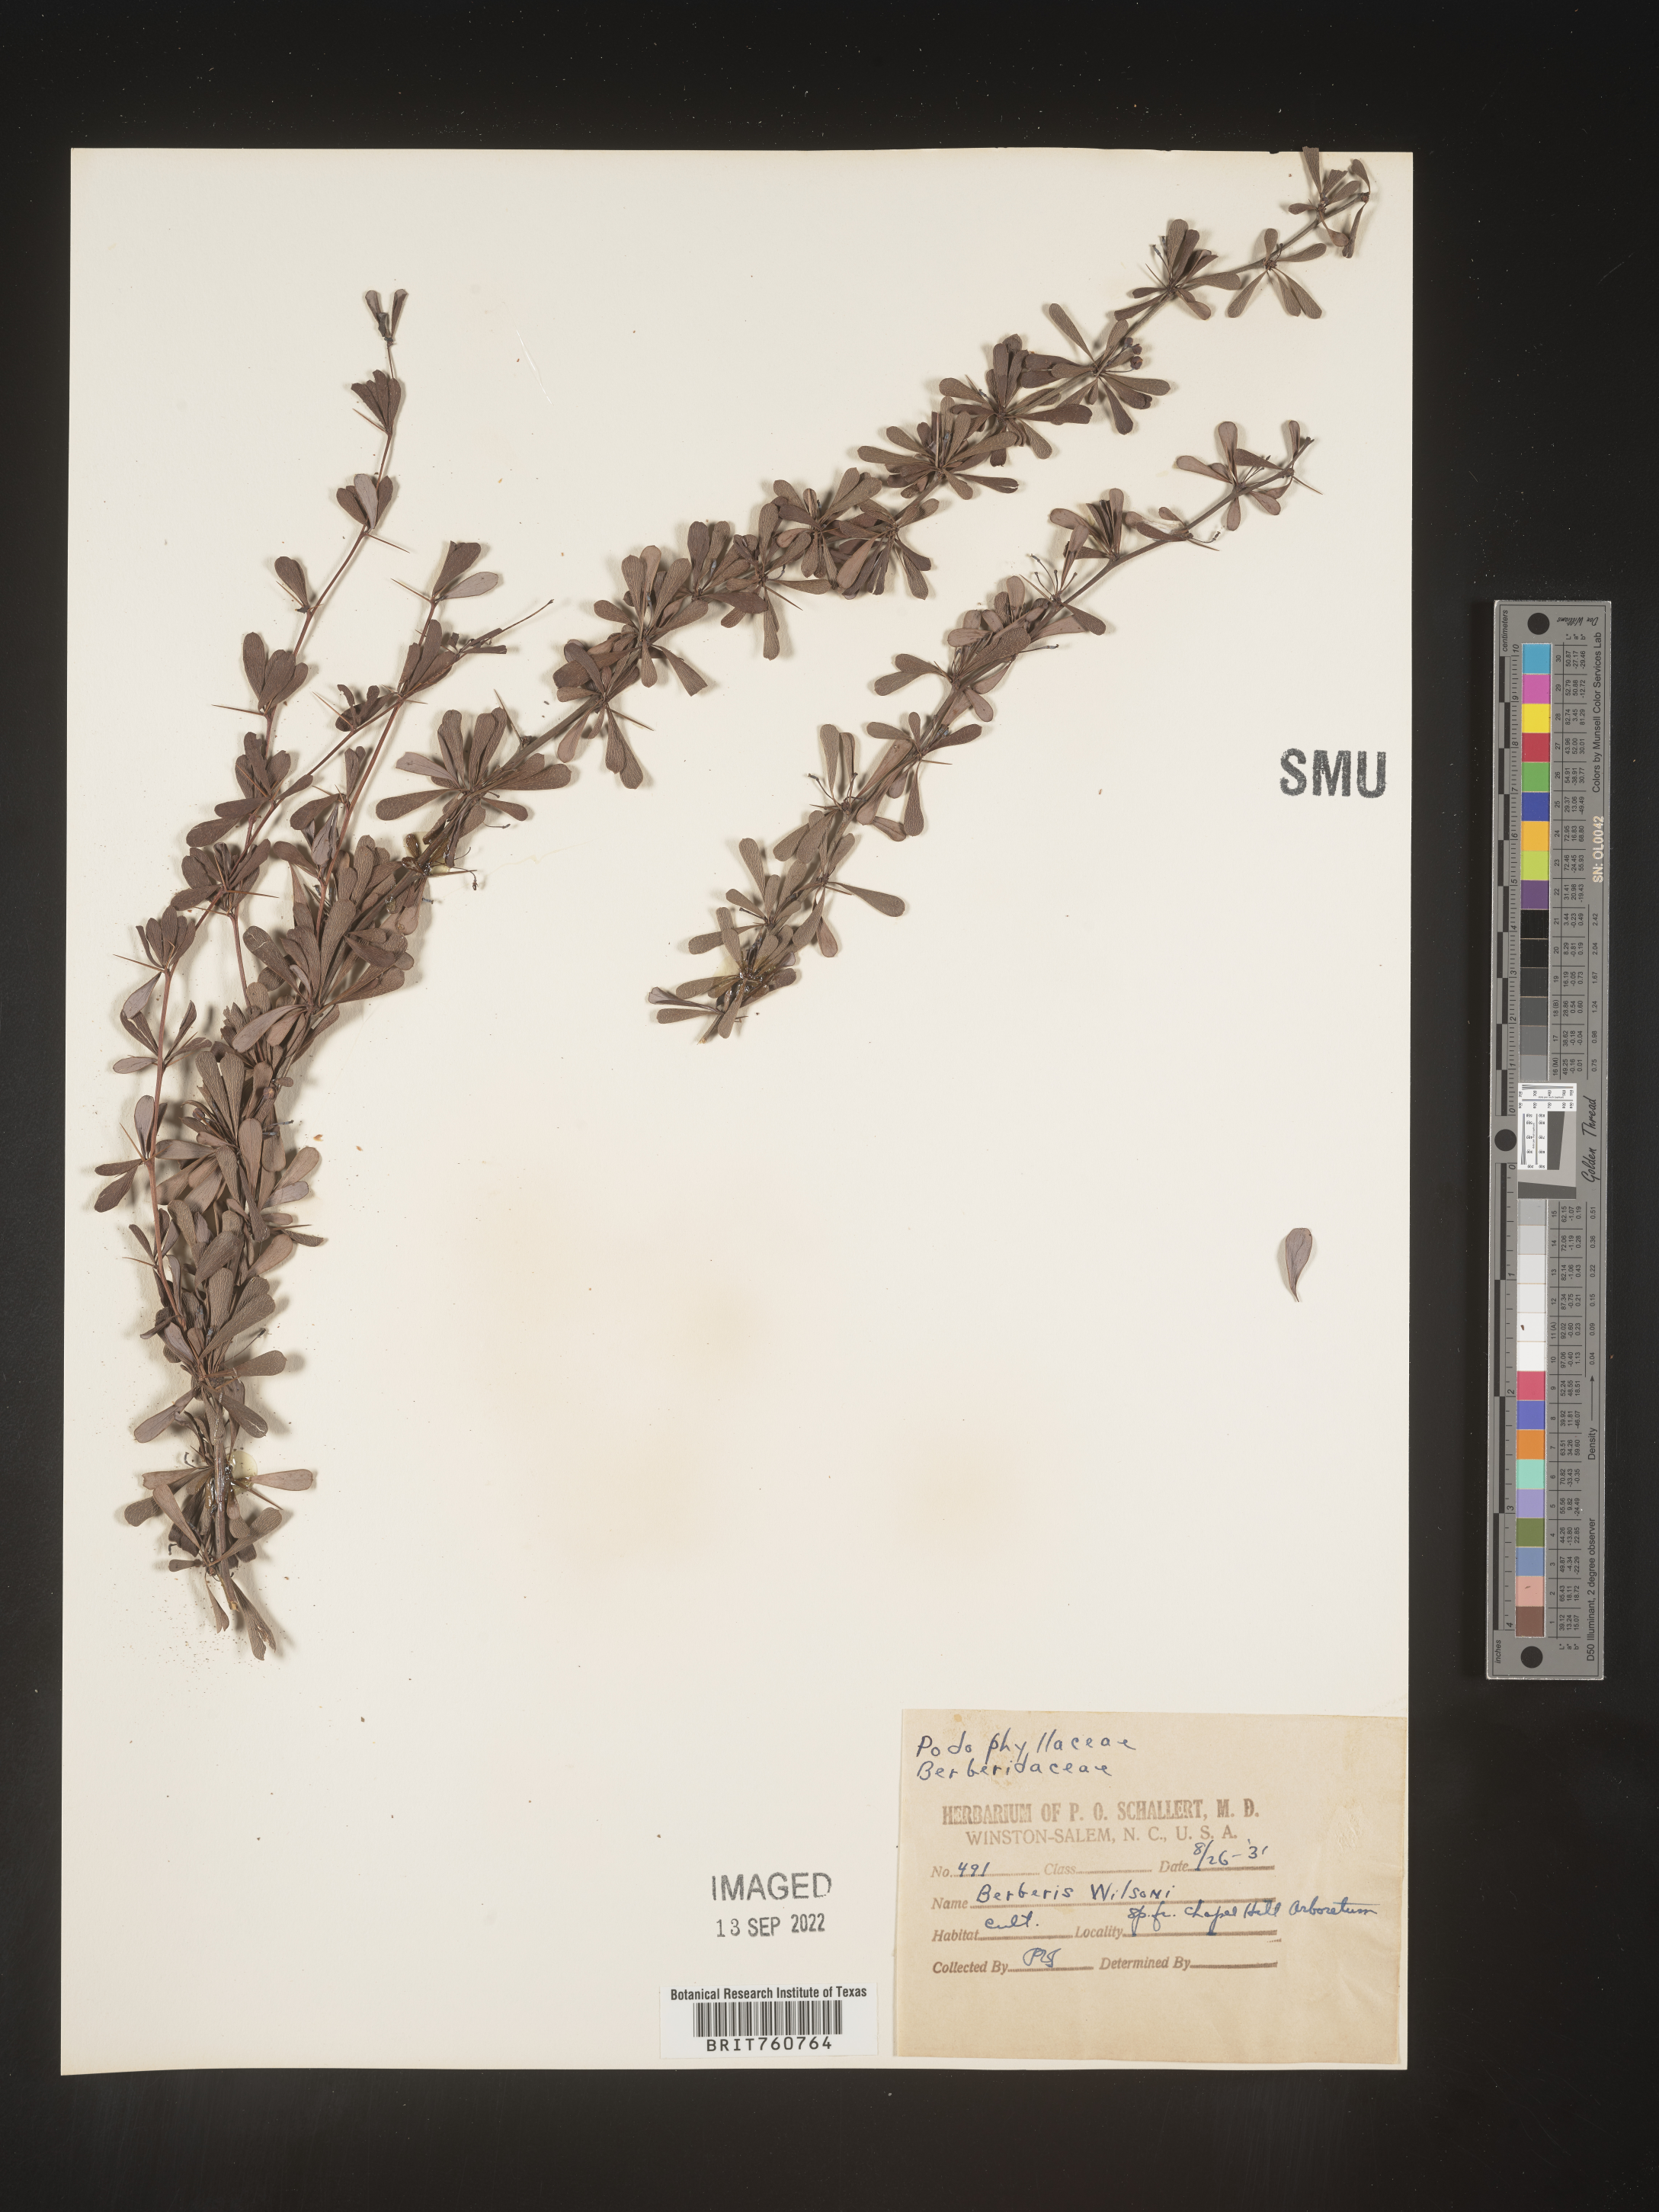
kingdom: Plantae
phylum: Tracheophyta
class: Magnoliopsida
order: Ranunculales
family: Berberidaceae
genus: Berberis
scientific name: Berberis
